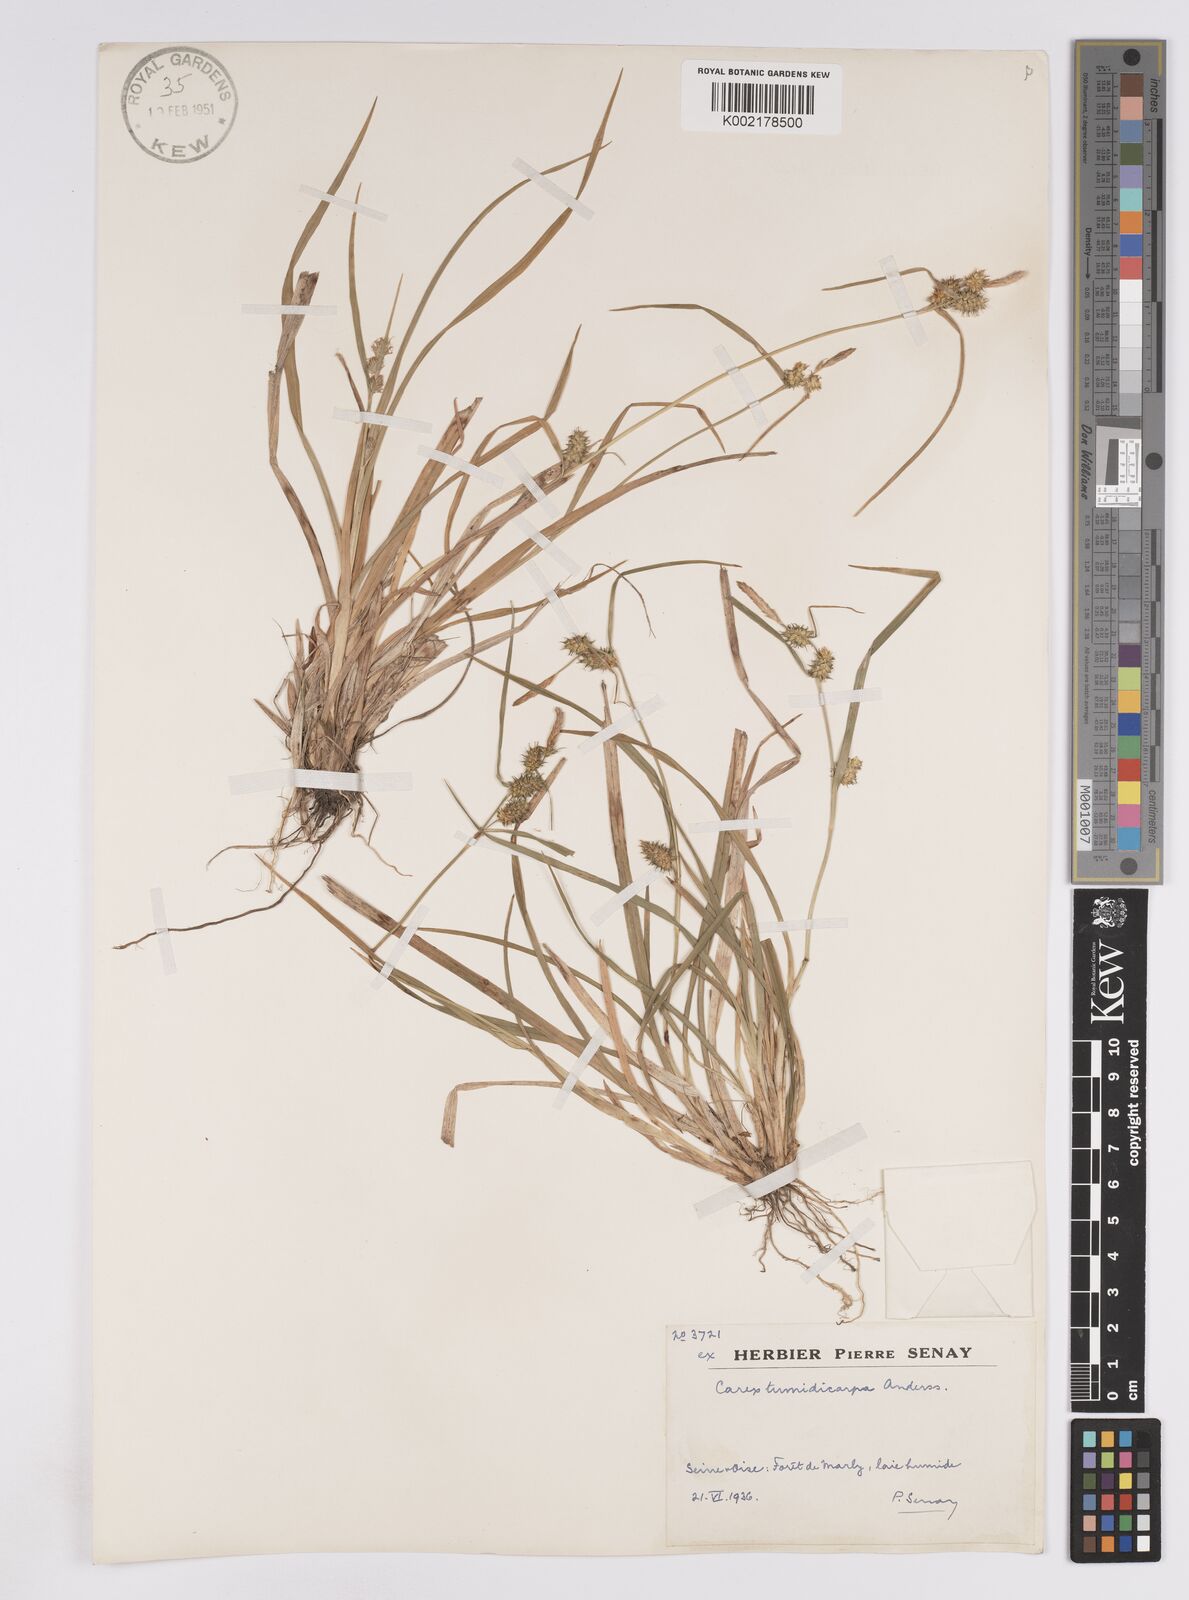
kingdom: Plantae
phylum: Tracheophyta
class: Liliopsida
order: Poales
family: Cyperaceae
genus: Carex
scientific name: Carex demissa
